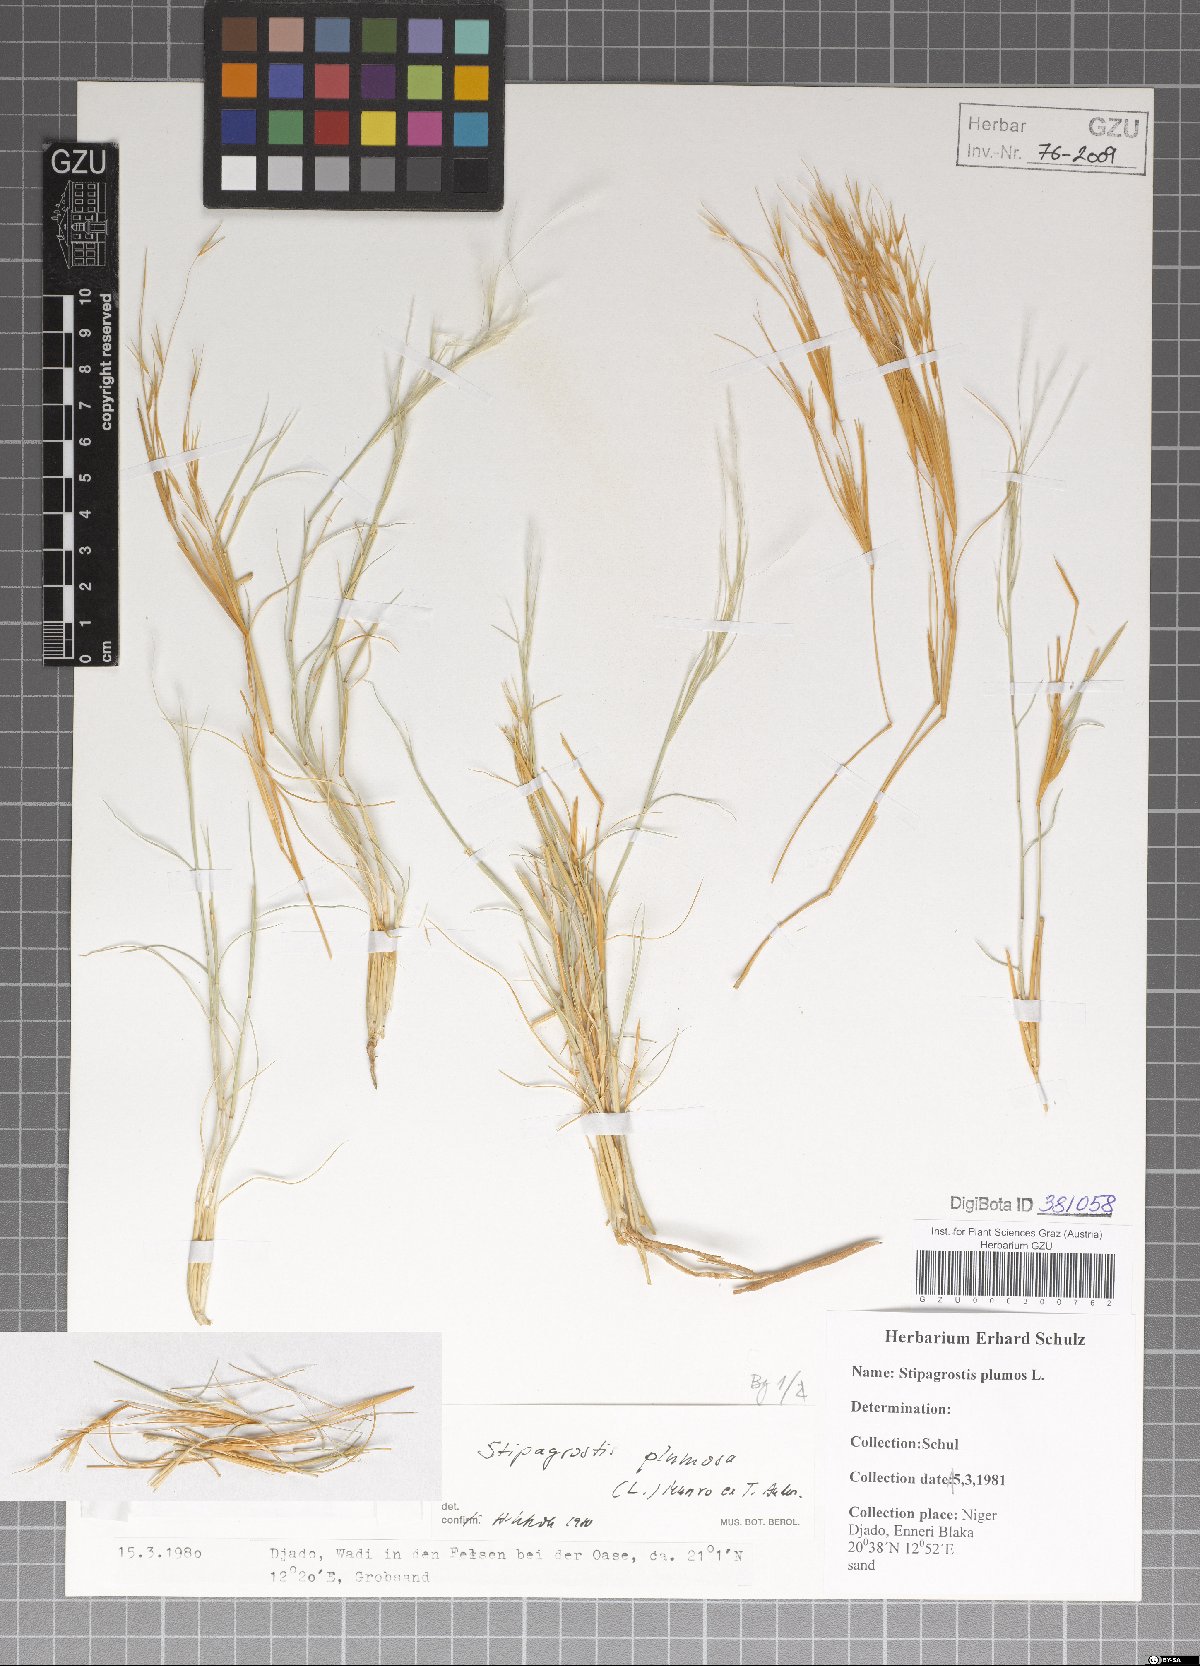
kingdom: Plantae
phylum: Tracheophyta
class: Liliopsida
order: Poales
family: Poaceae
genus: Stipagrostis
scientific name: Stipagrostis plumosa
